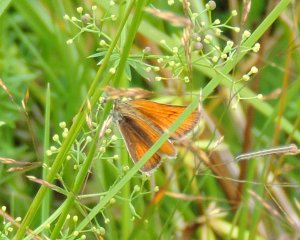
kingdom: Animalia
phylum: Arthropoda
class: Insecta
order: Lepidoptera
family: Hesperiidae
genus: Thymelicus
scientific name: Thymelicus lineola
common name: European Skipper
